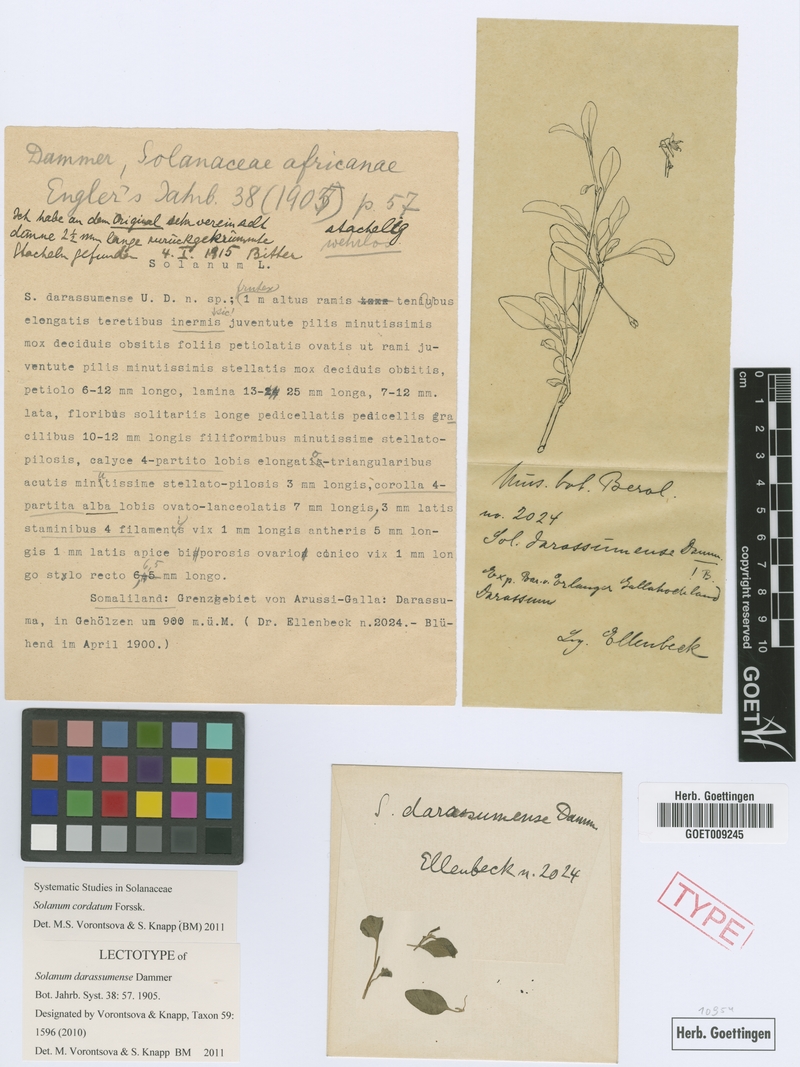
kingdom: Plantae
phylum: Tracheophyta
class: Magnoliopsida
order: Solanales
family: Solanaceae
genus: Solanum
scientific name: Solanum cordatum
